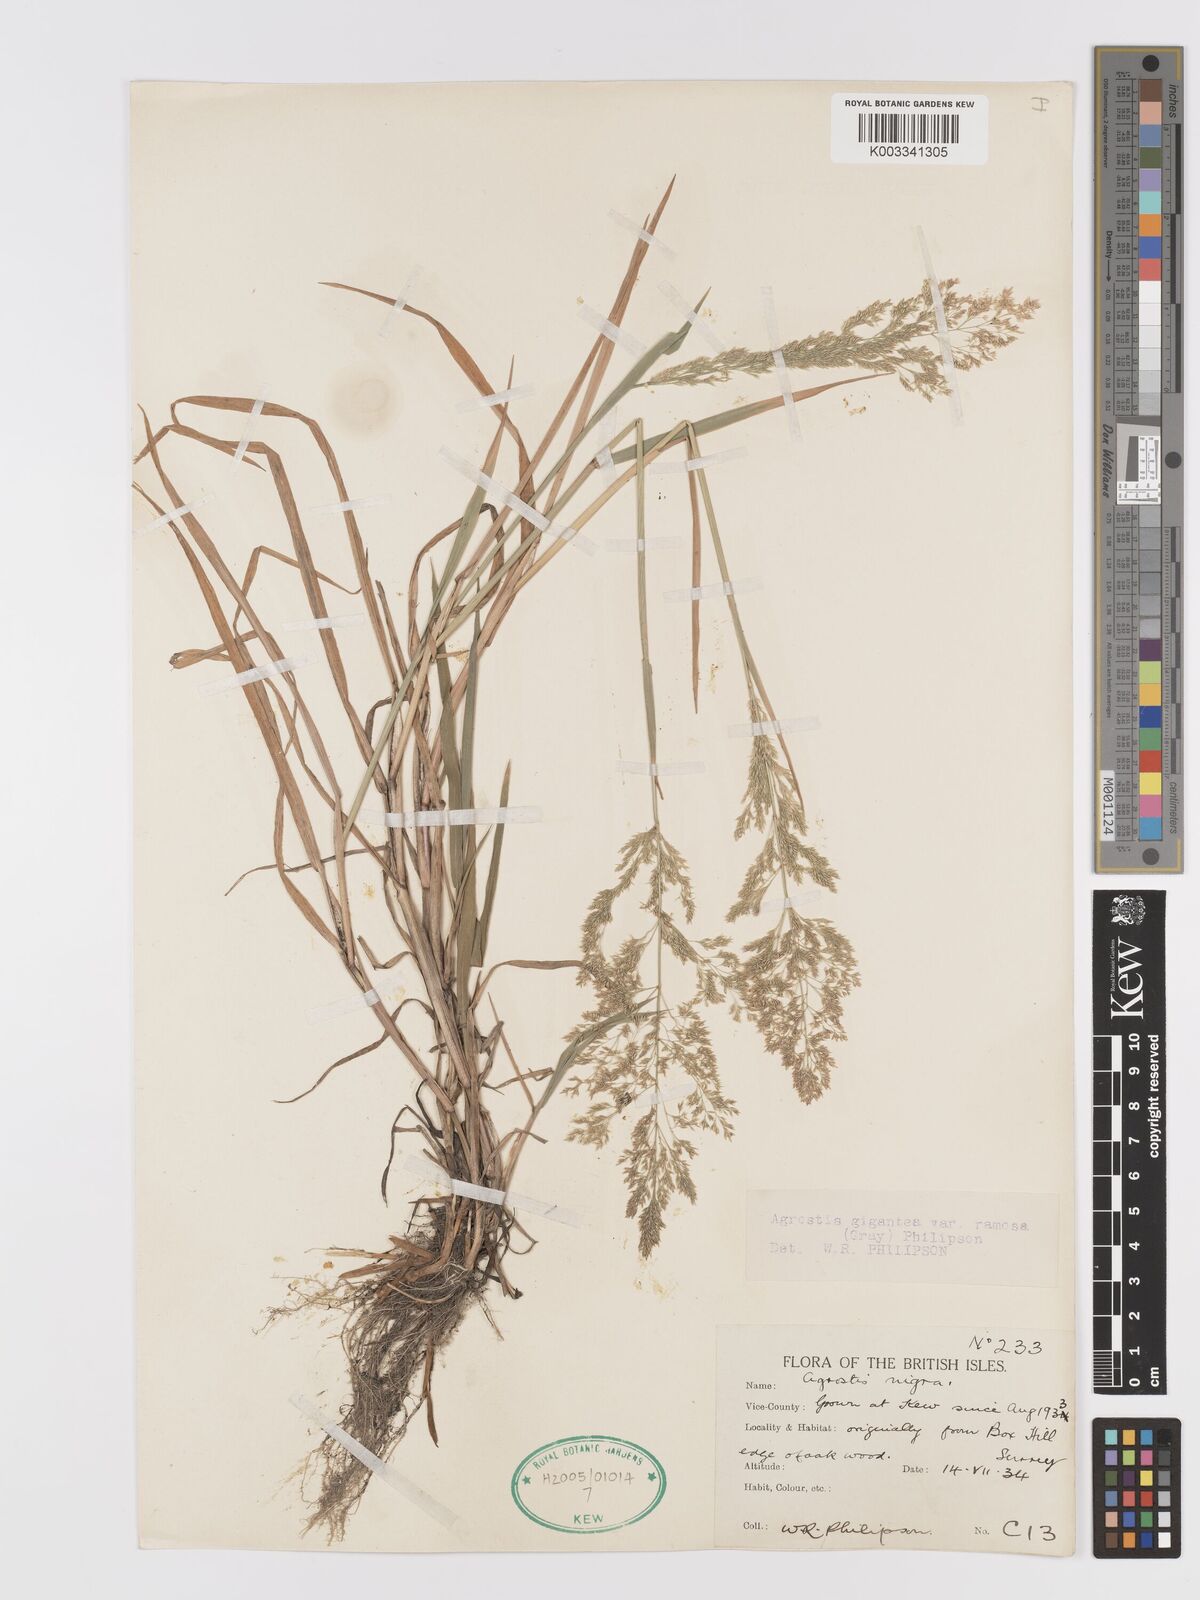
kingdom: Plantae
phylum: Tracheophyta
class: Liliopsida
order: Poales
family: Poaceae
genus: Agrostis
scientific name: Agrostis gigantea
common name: Black bent
